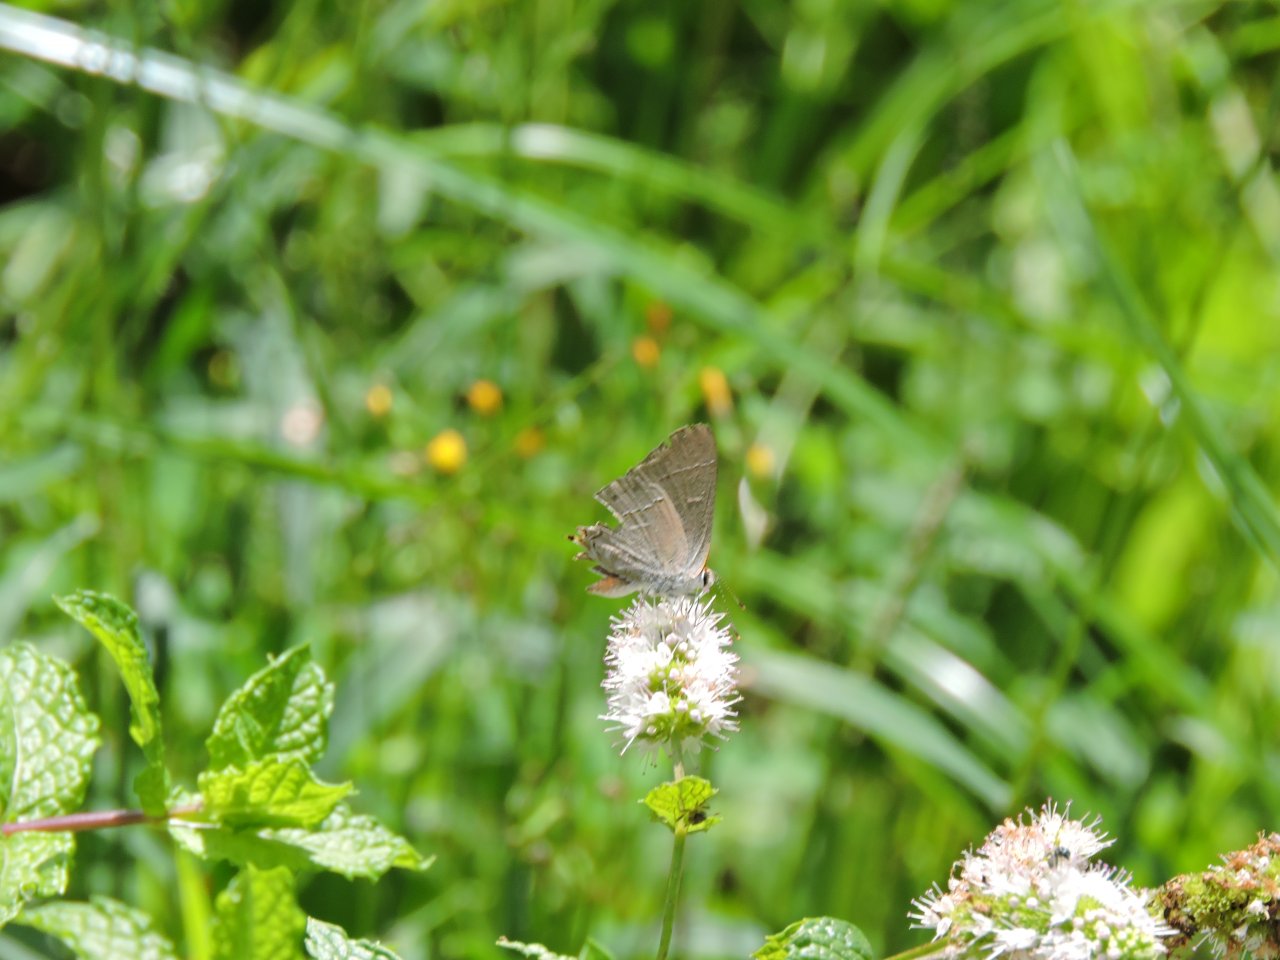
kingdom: Animalia
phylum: Arthropoda
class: Insecta
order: Lepidoptera
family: Lycaenidae
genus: Strymon
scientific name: Strymon melinus
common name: Gray Hairstreak
